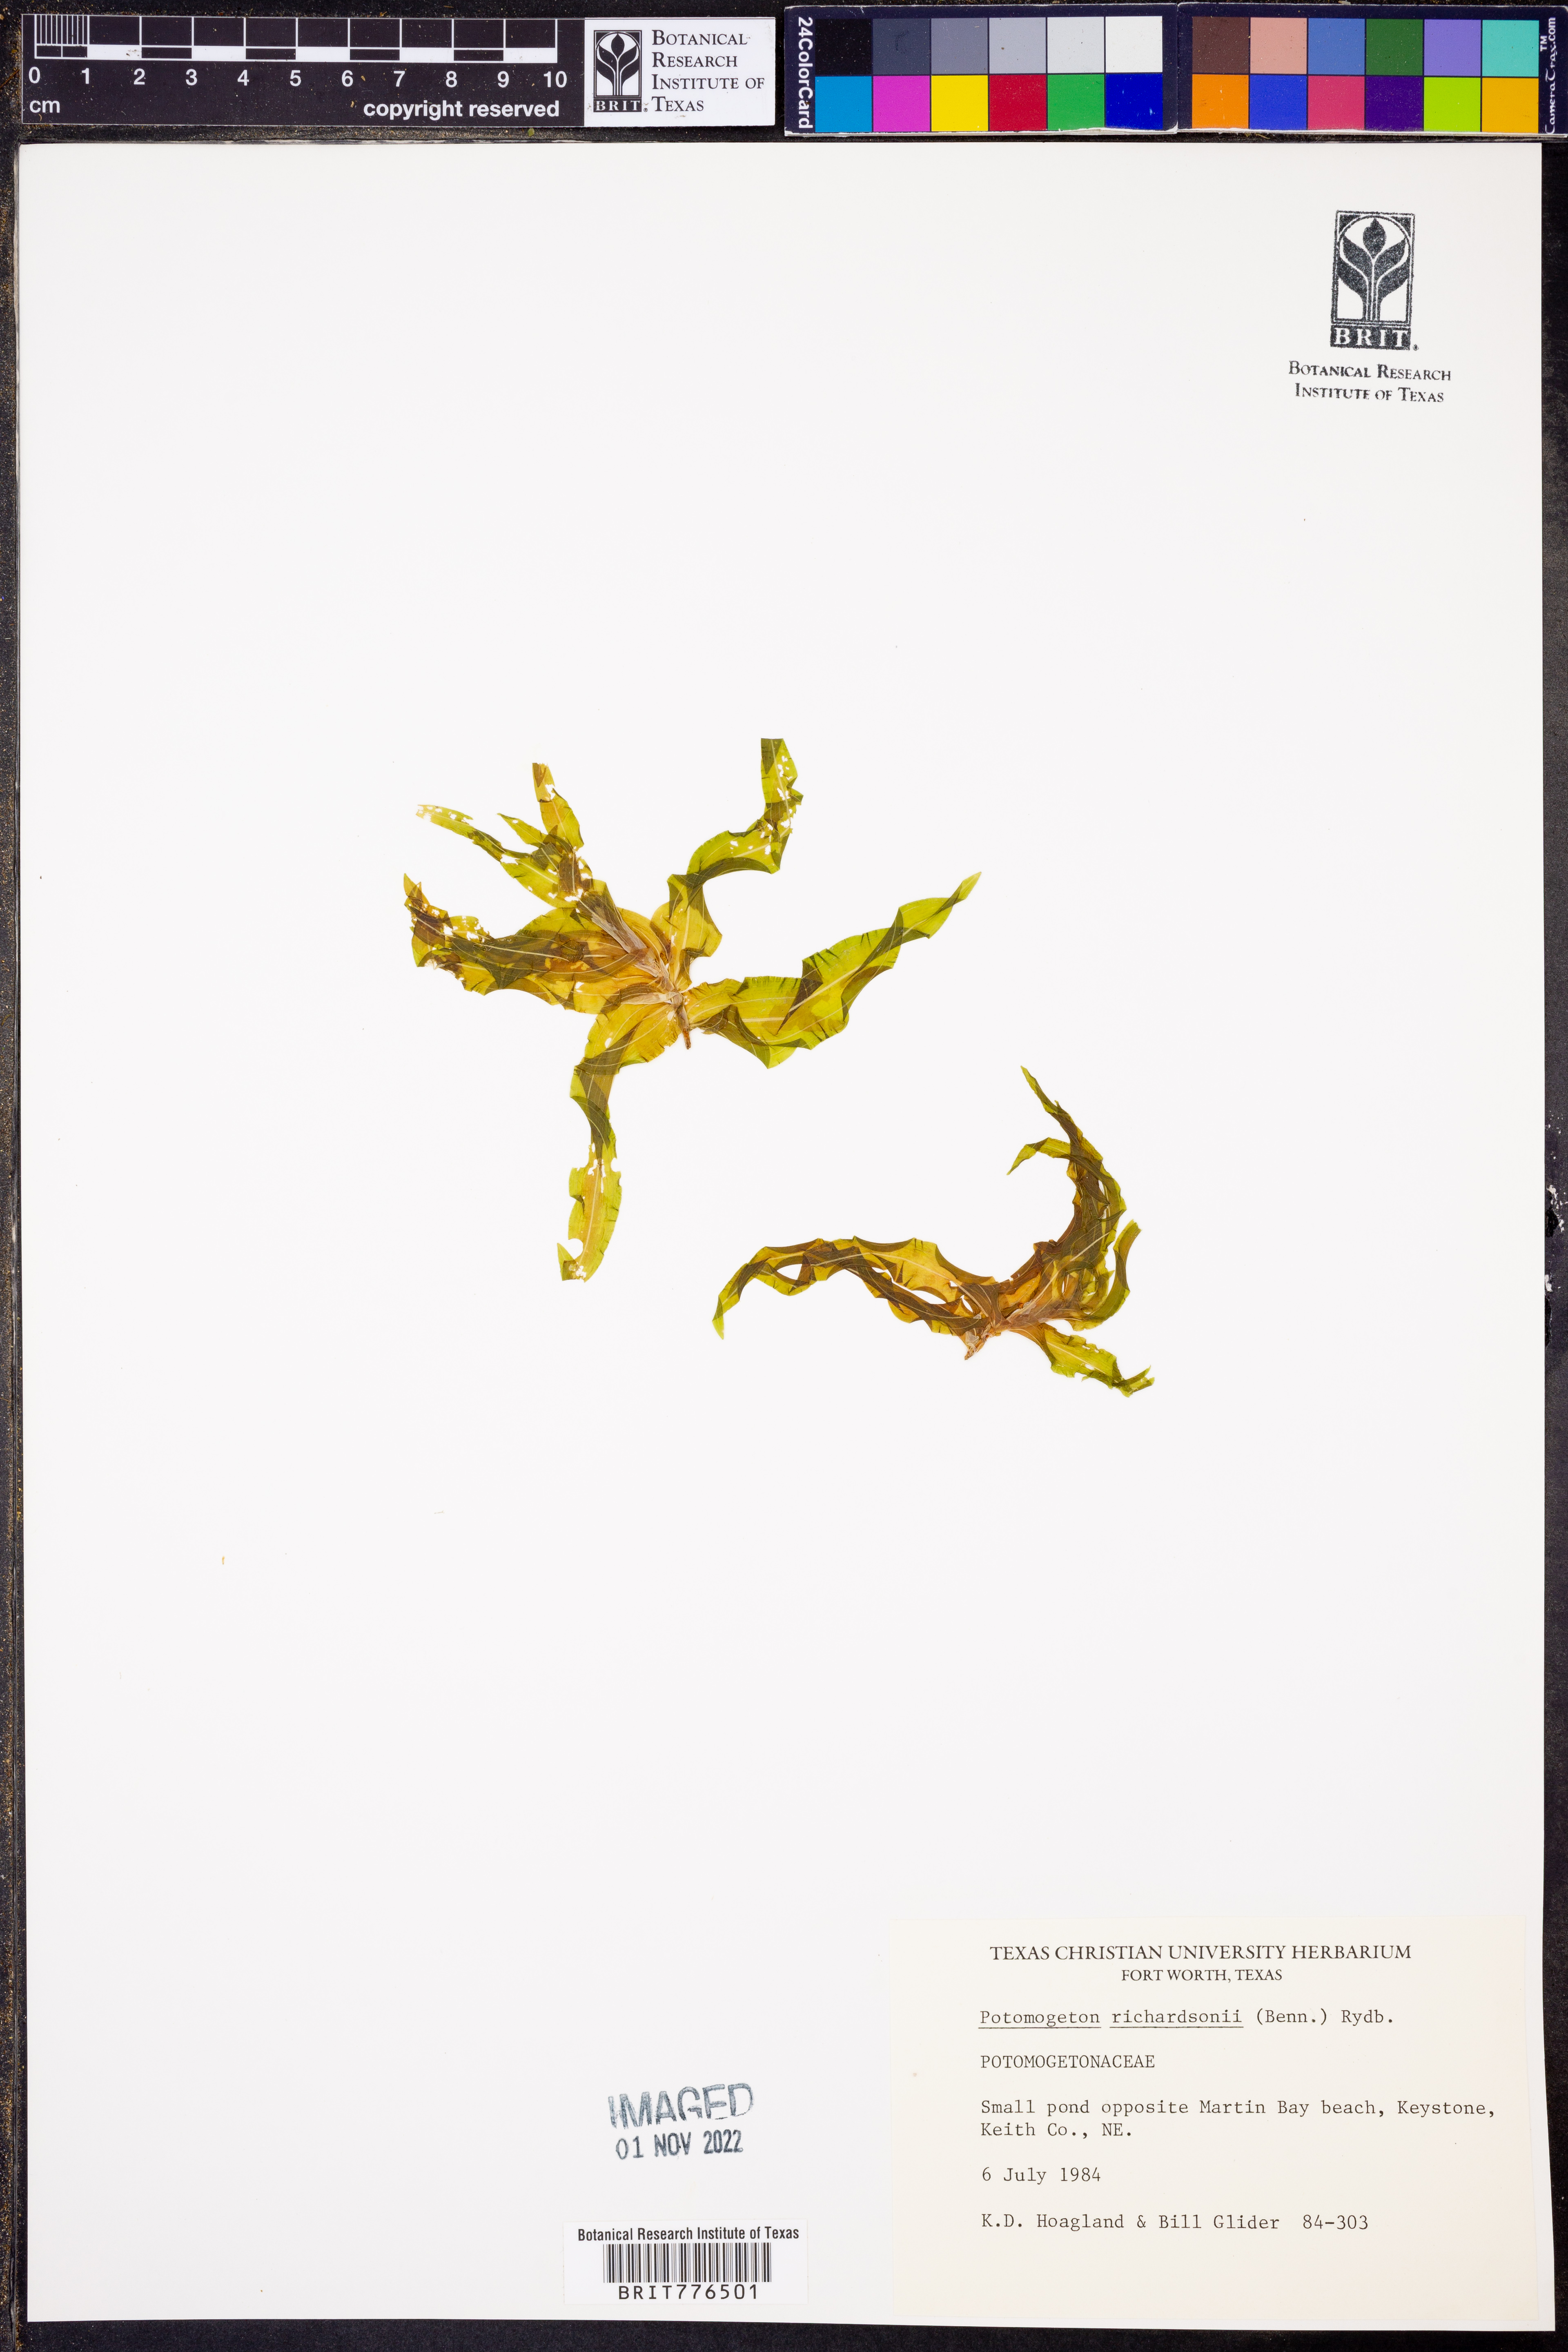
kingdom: Plantae
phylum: Tracheophyta
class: Liliopsida
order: Alismatales
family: Potamogetonaceae
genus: Potamogeton
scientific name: Potamogeton richardsonii
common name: Richardson's pondweed
